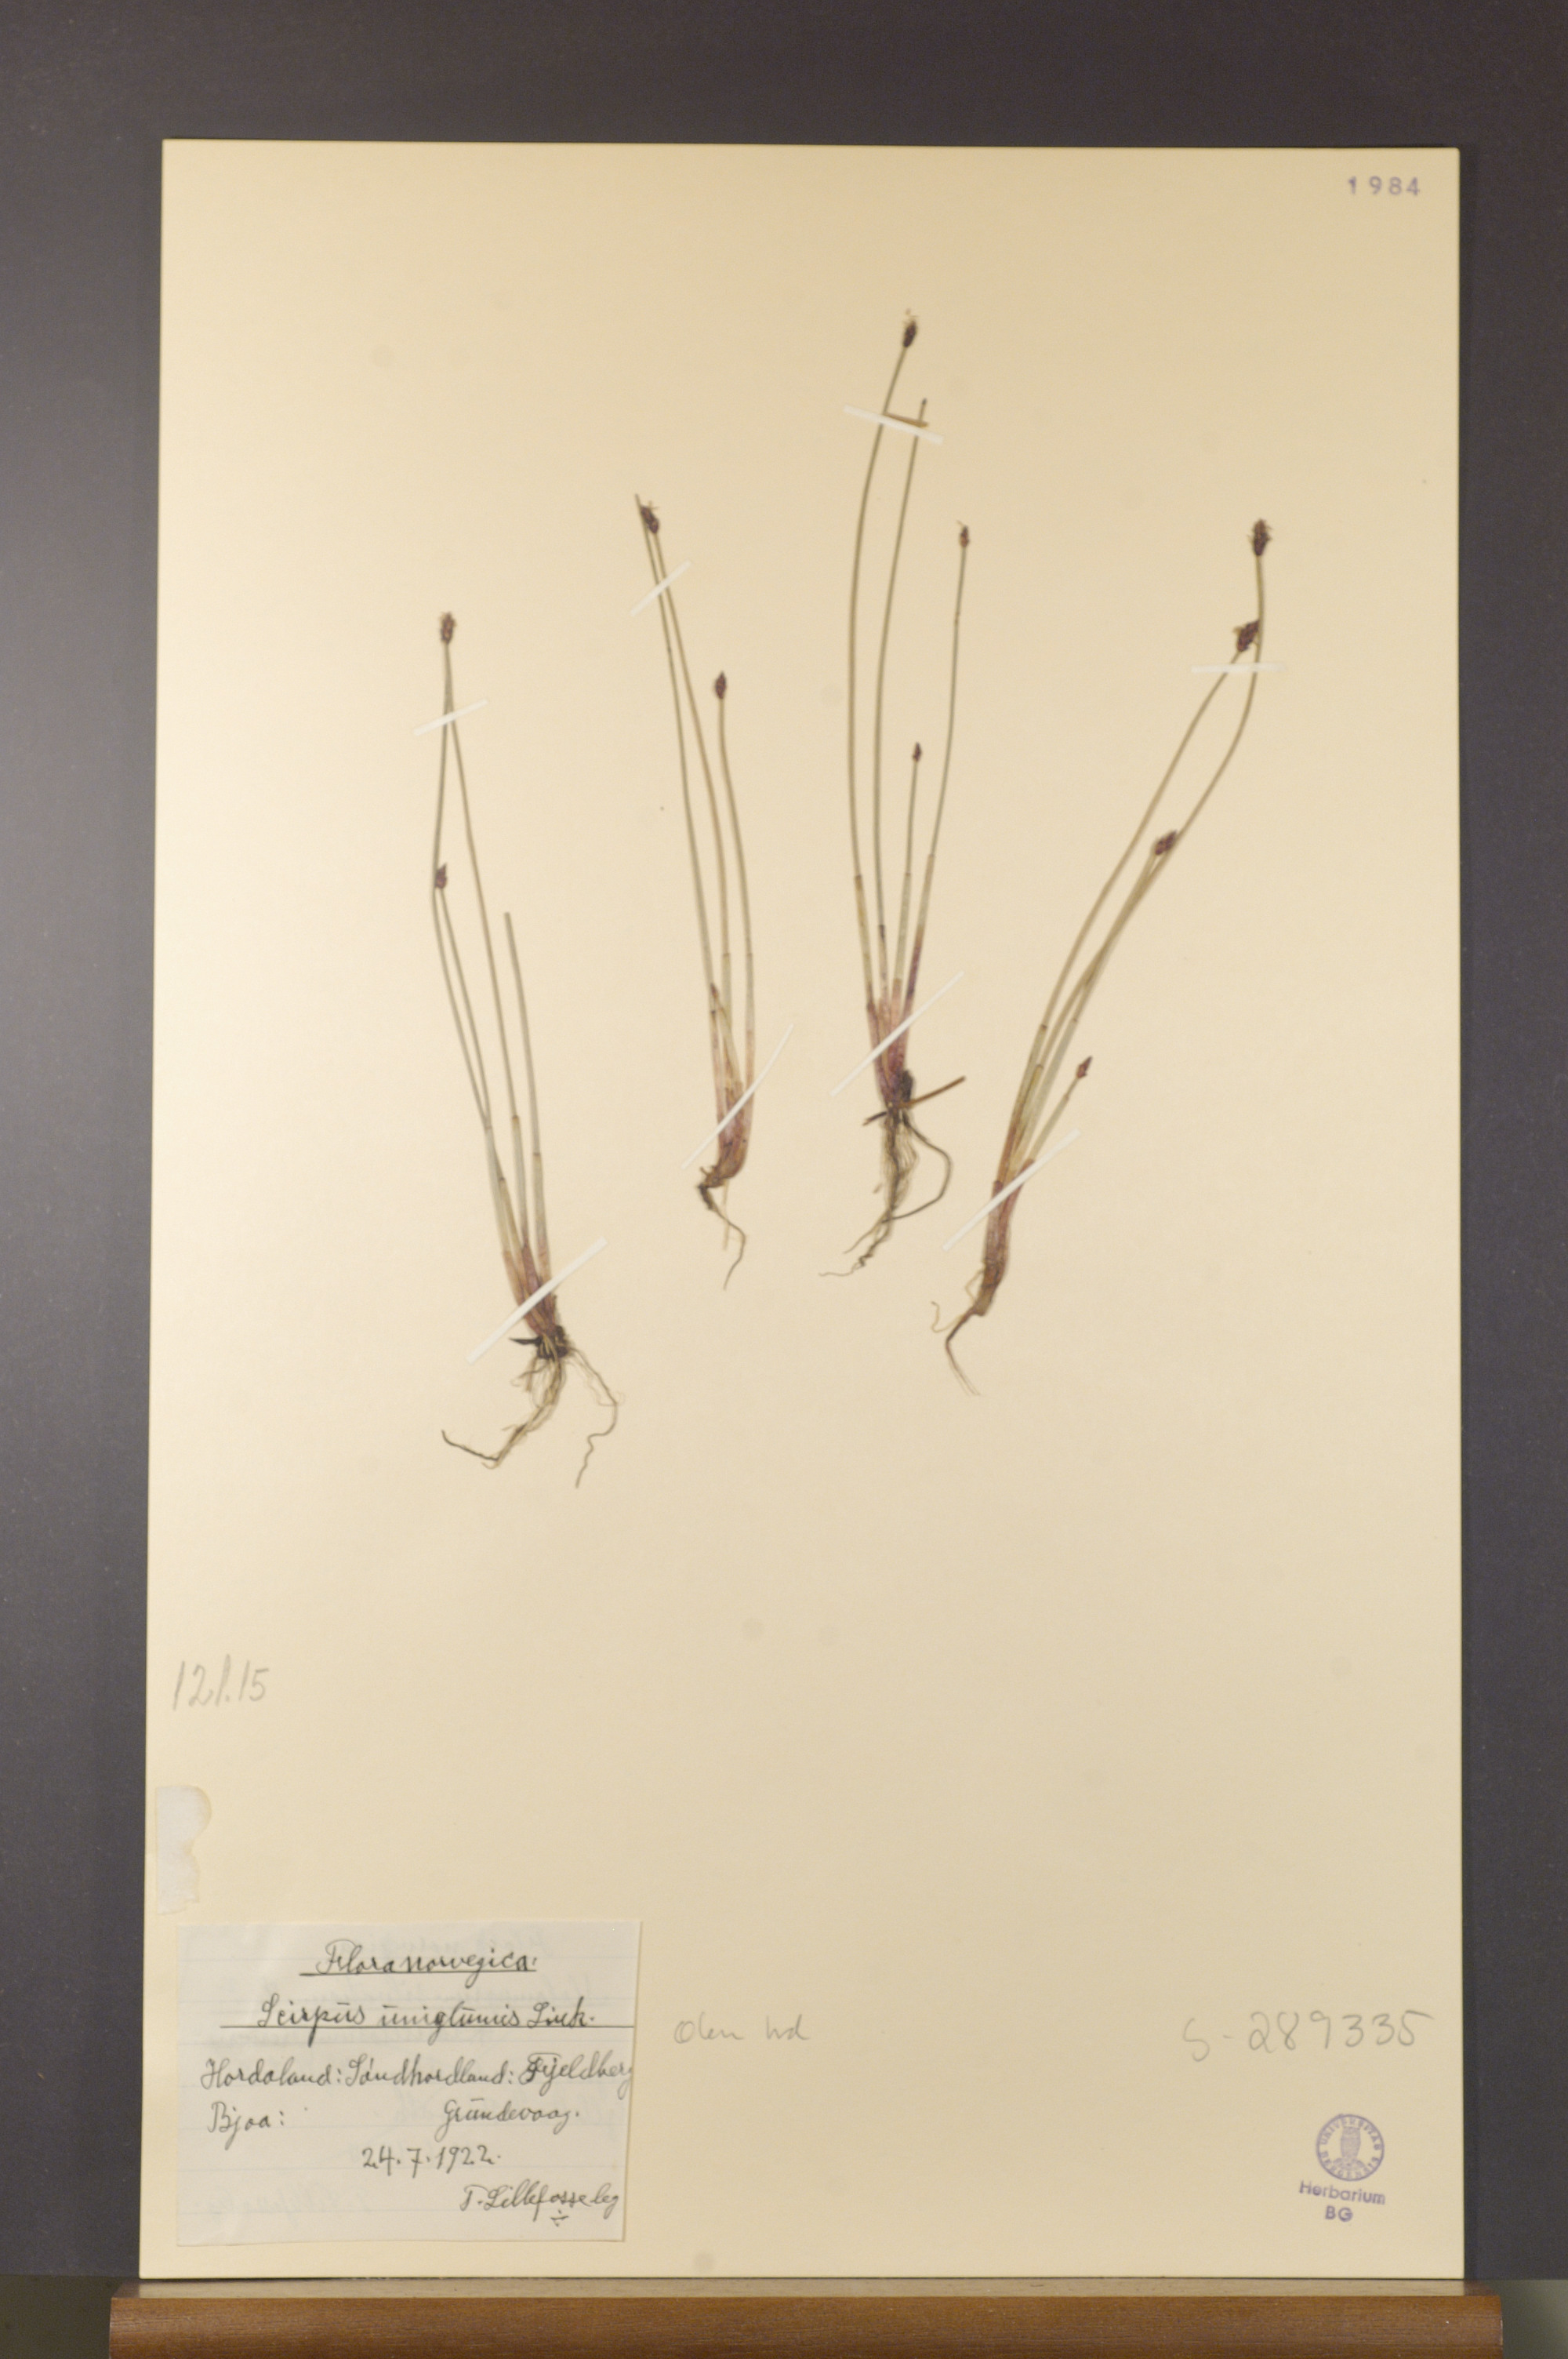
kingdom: Plantae
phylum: Tracheophyta
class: Liliopsida
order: Poales
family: Cyperaceae
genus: Eleocharis
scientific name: Eleocharis uniglumis
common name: Slender spike-rush
